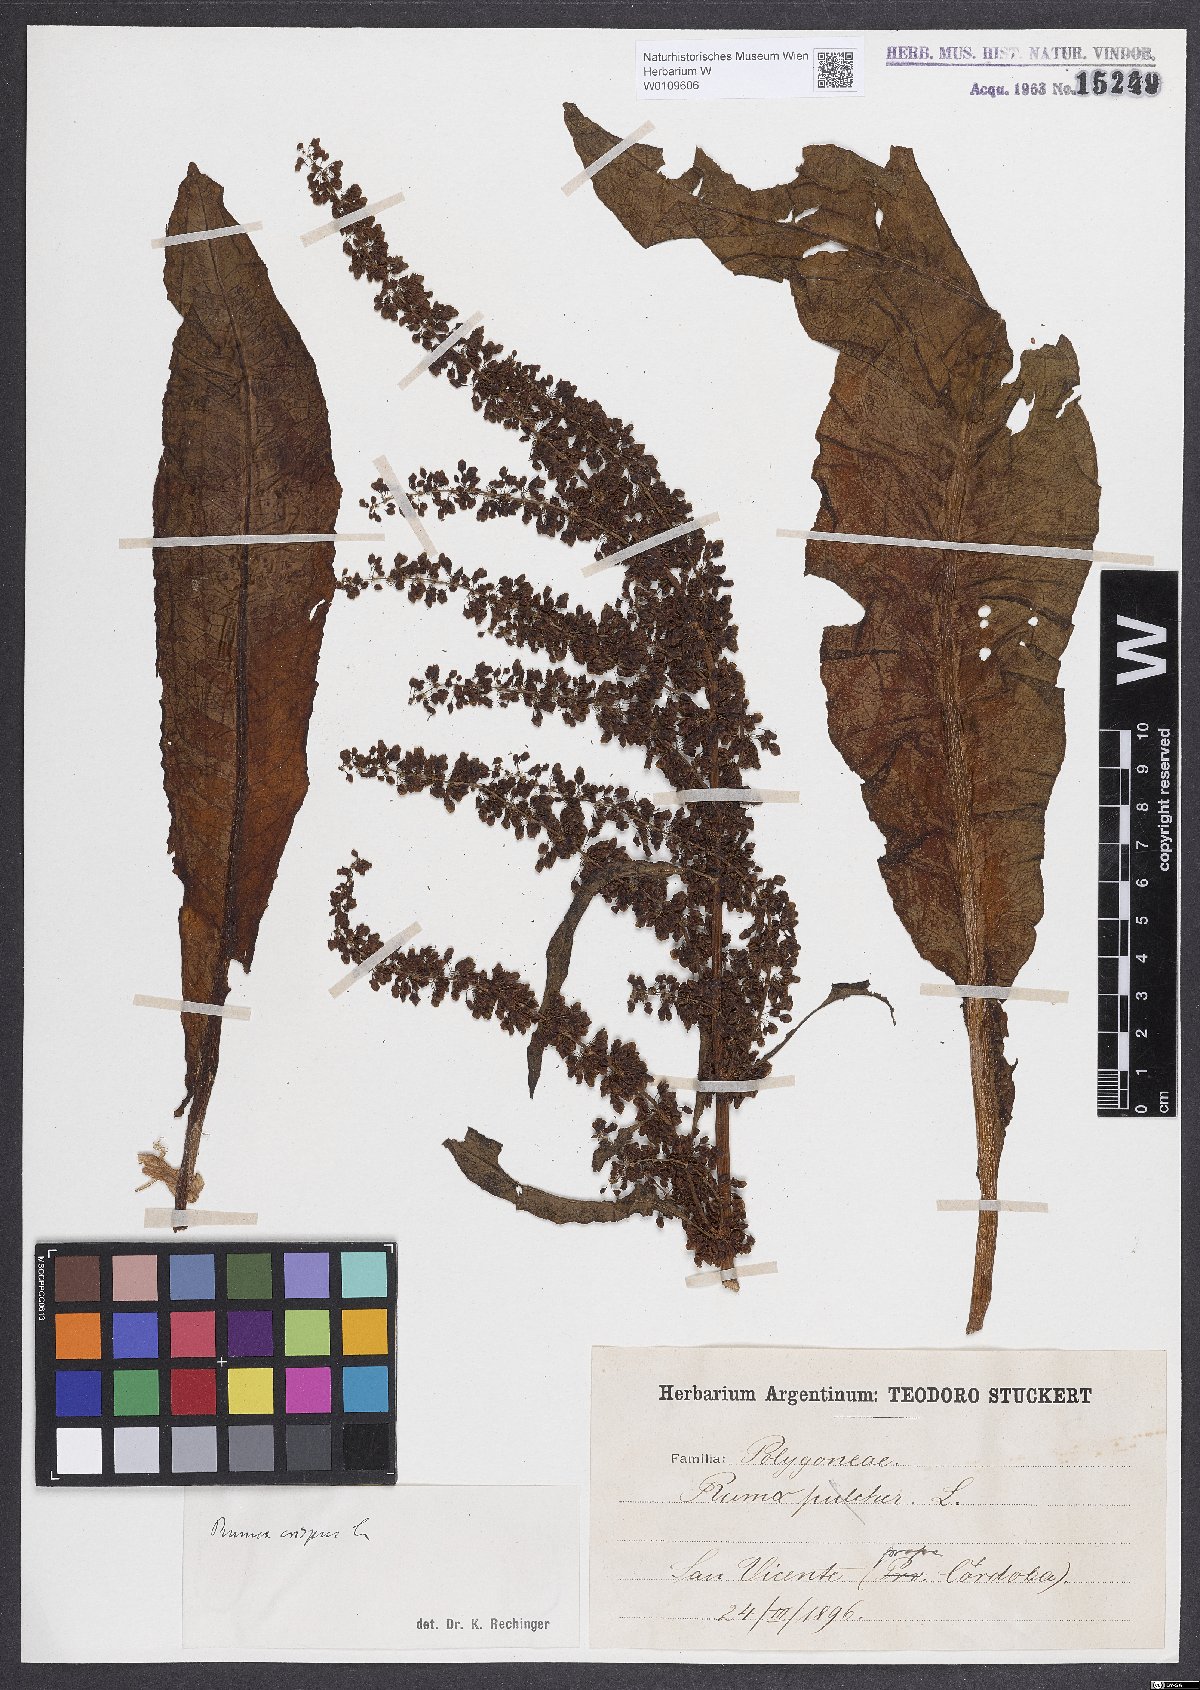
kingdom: Plantae
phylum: Tracheophyta
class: Magnoliopsida
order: Caryophyllales
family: Polygonaceae
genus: Rumex
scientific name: Rumex crispus
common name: Curled dock
